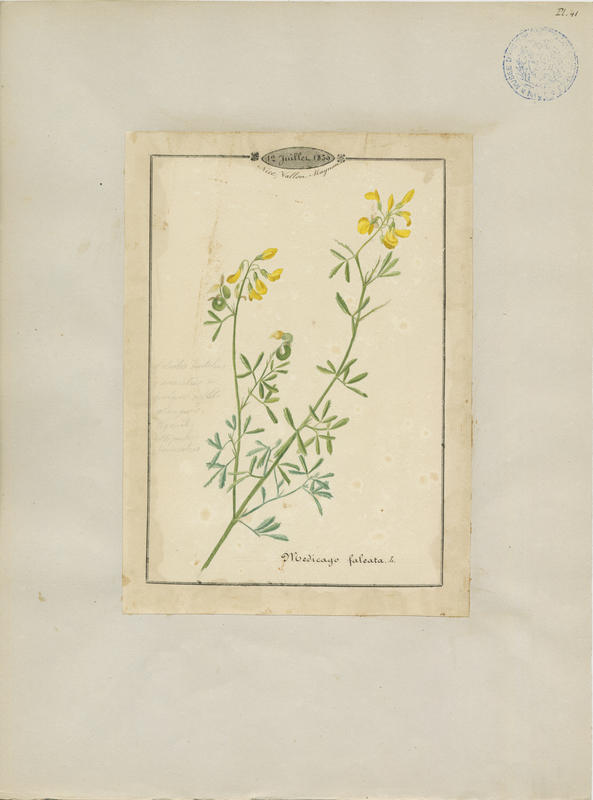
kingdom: Plantae
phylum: Tracheophyta
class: Magnoliopsida
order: Fabales
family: Fabaceae
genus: Medicago
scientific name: Medicago falcata
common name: Sickle medick
